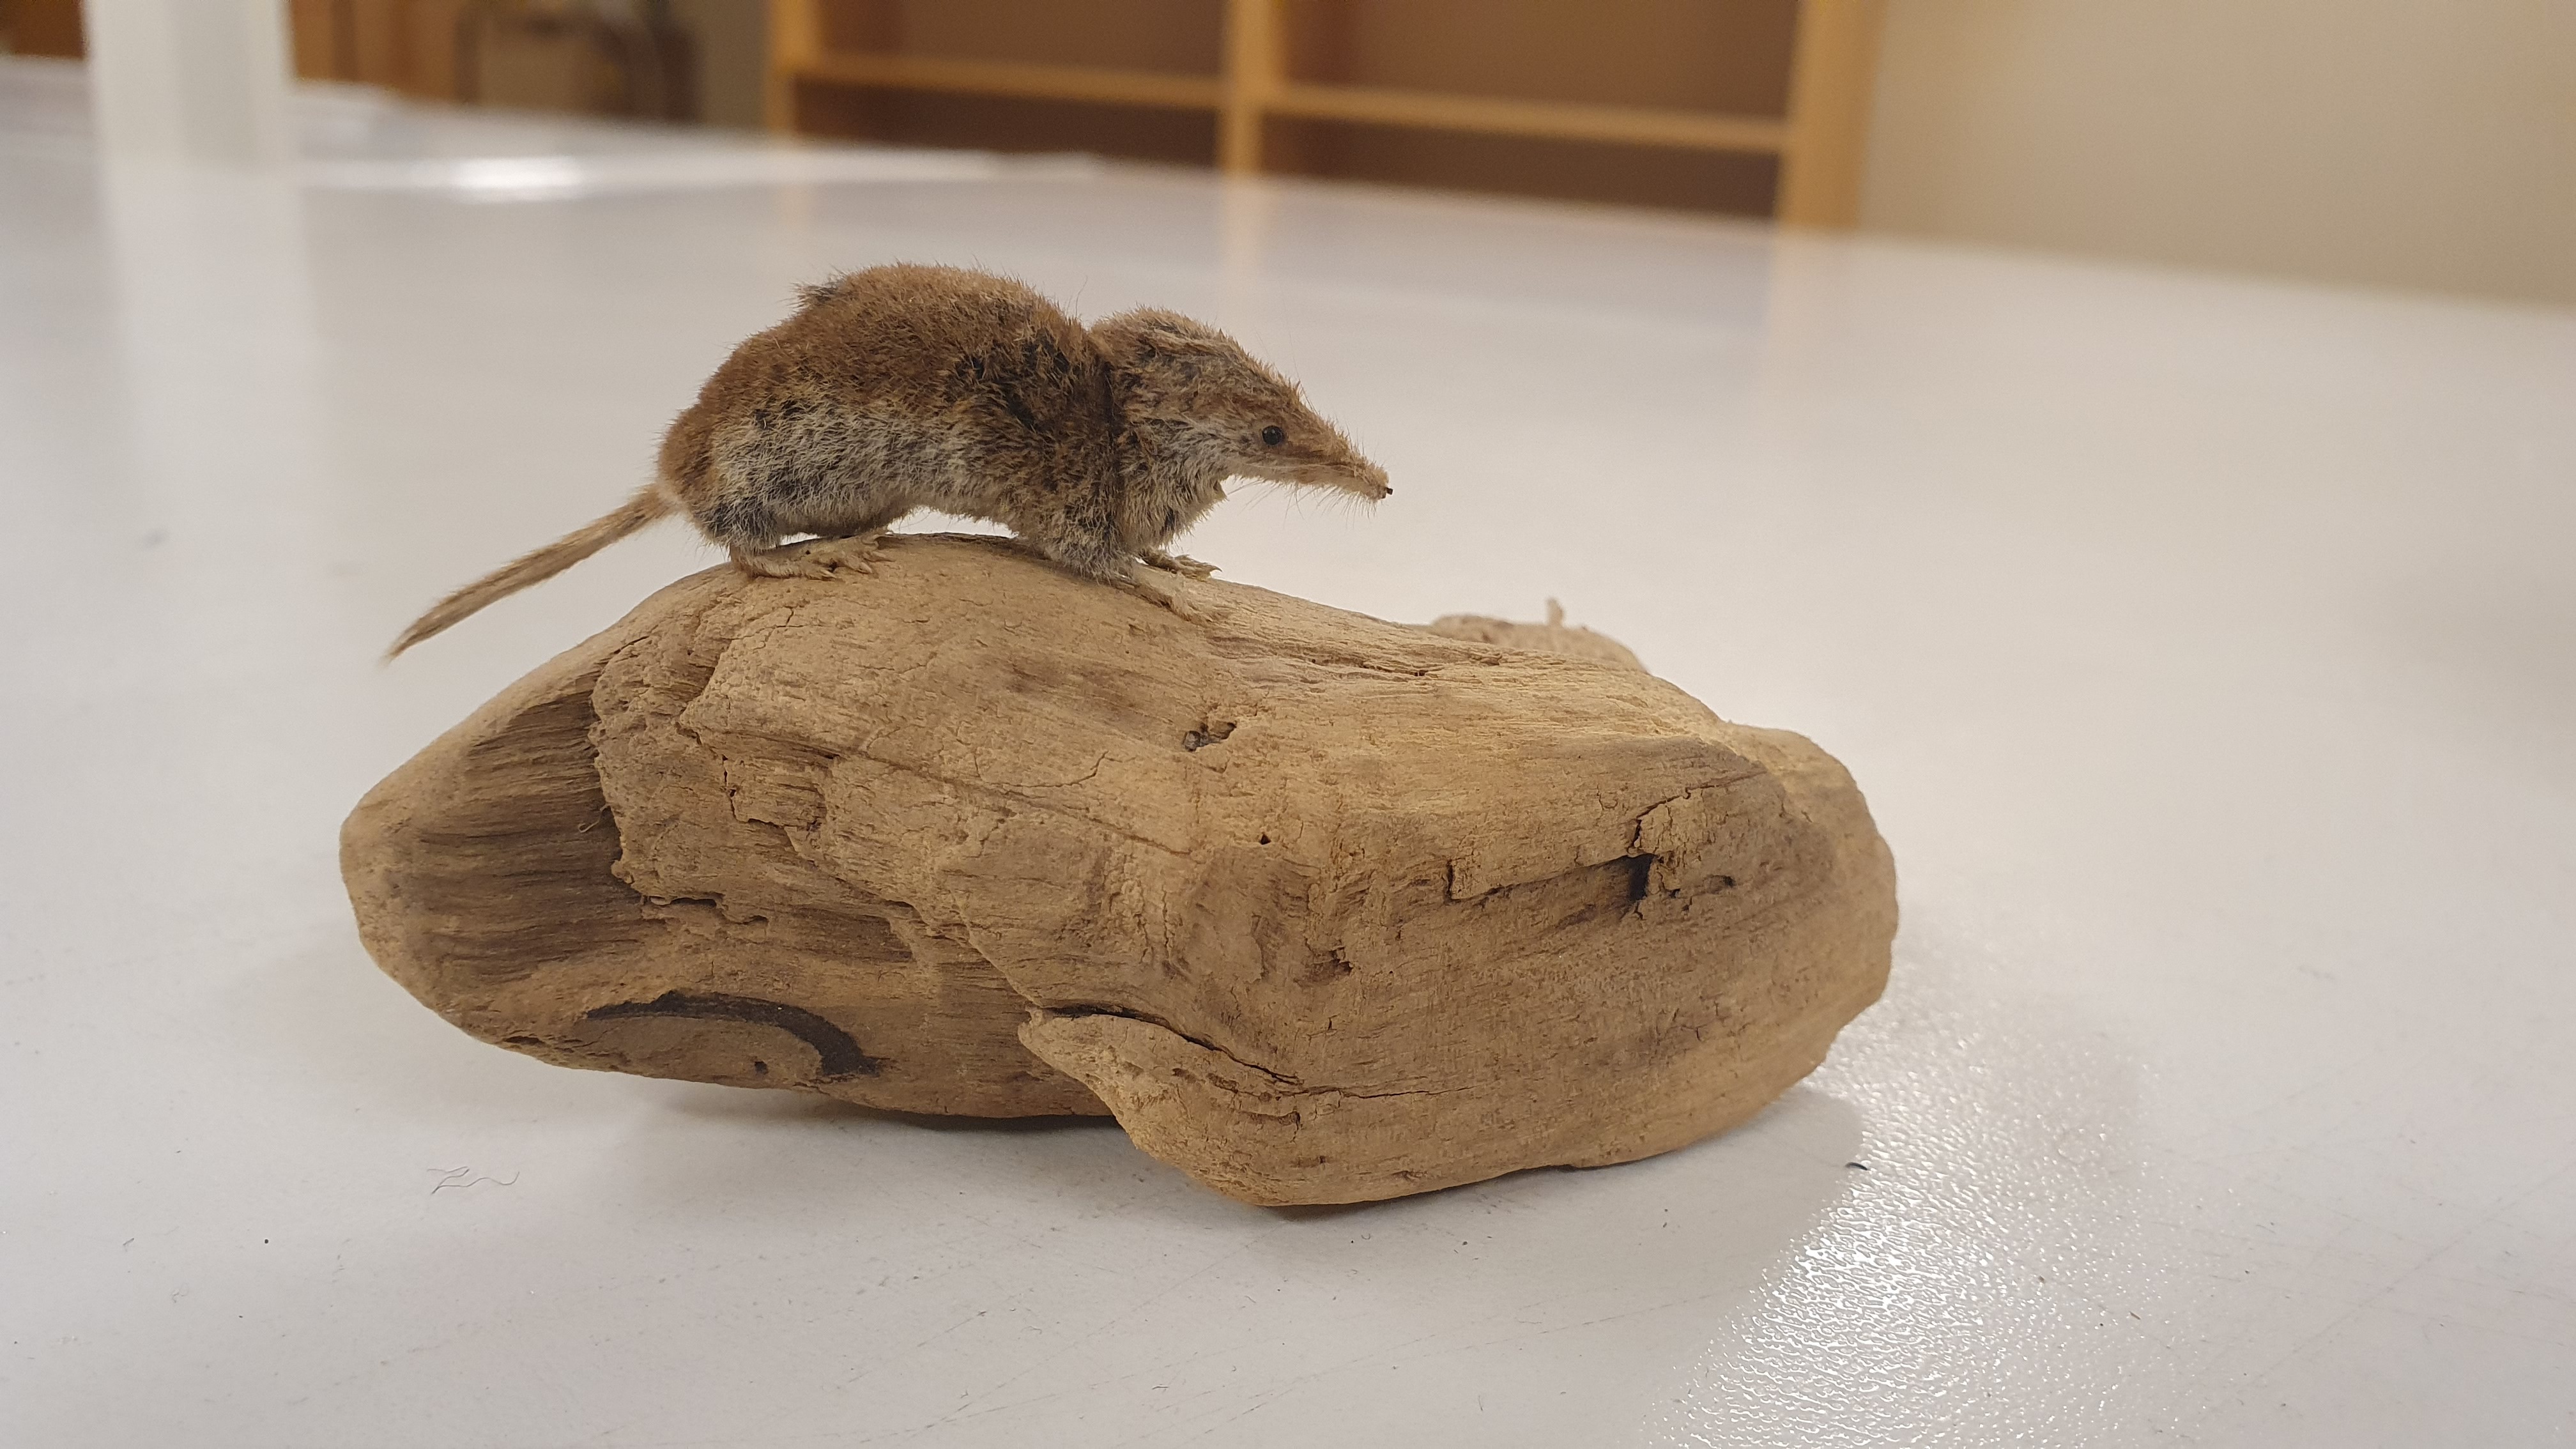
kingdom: Animalia
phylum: Chordata
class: Mammalia
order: Soricomorpha
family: Soricidae
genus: Sorex
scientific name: Sorex minutissimus
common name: Eurasian least shrew
